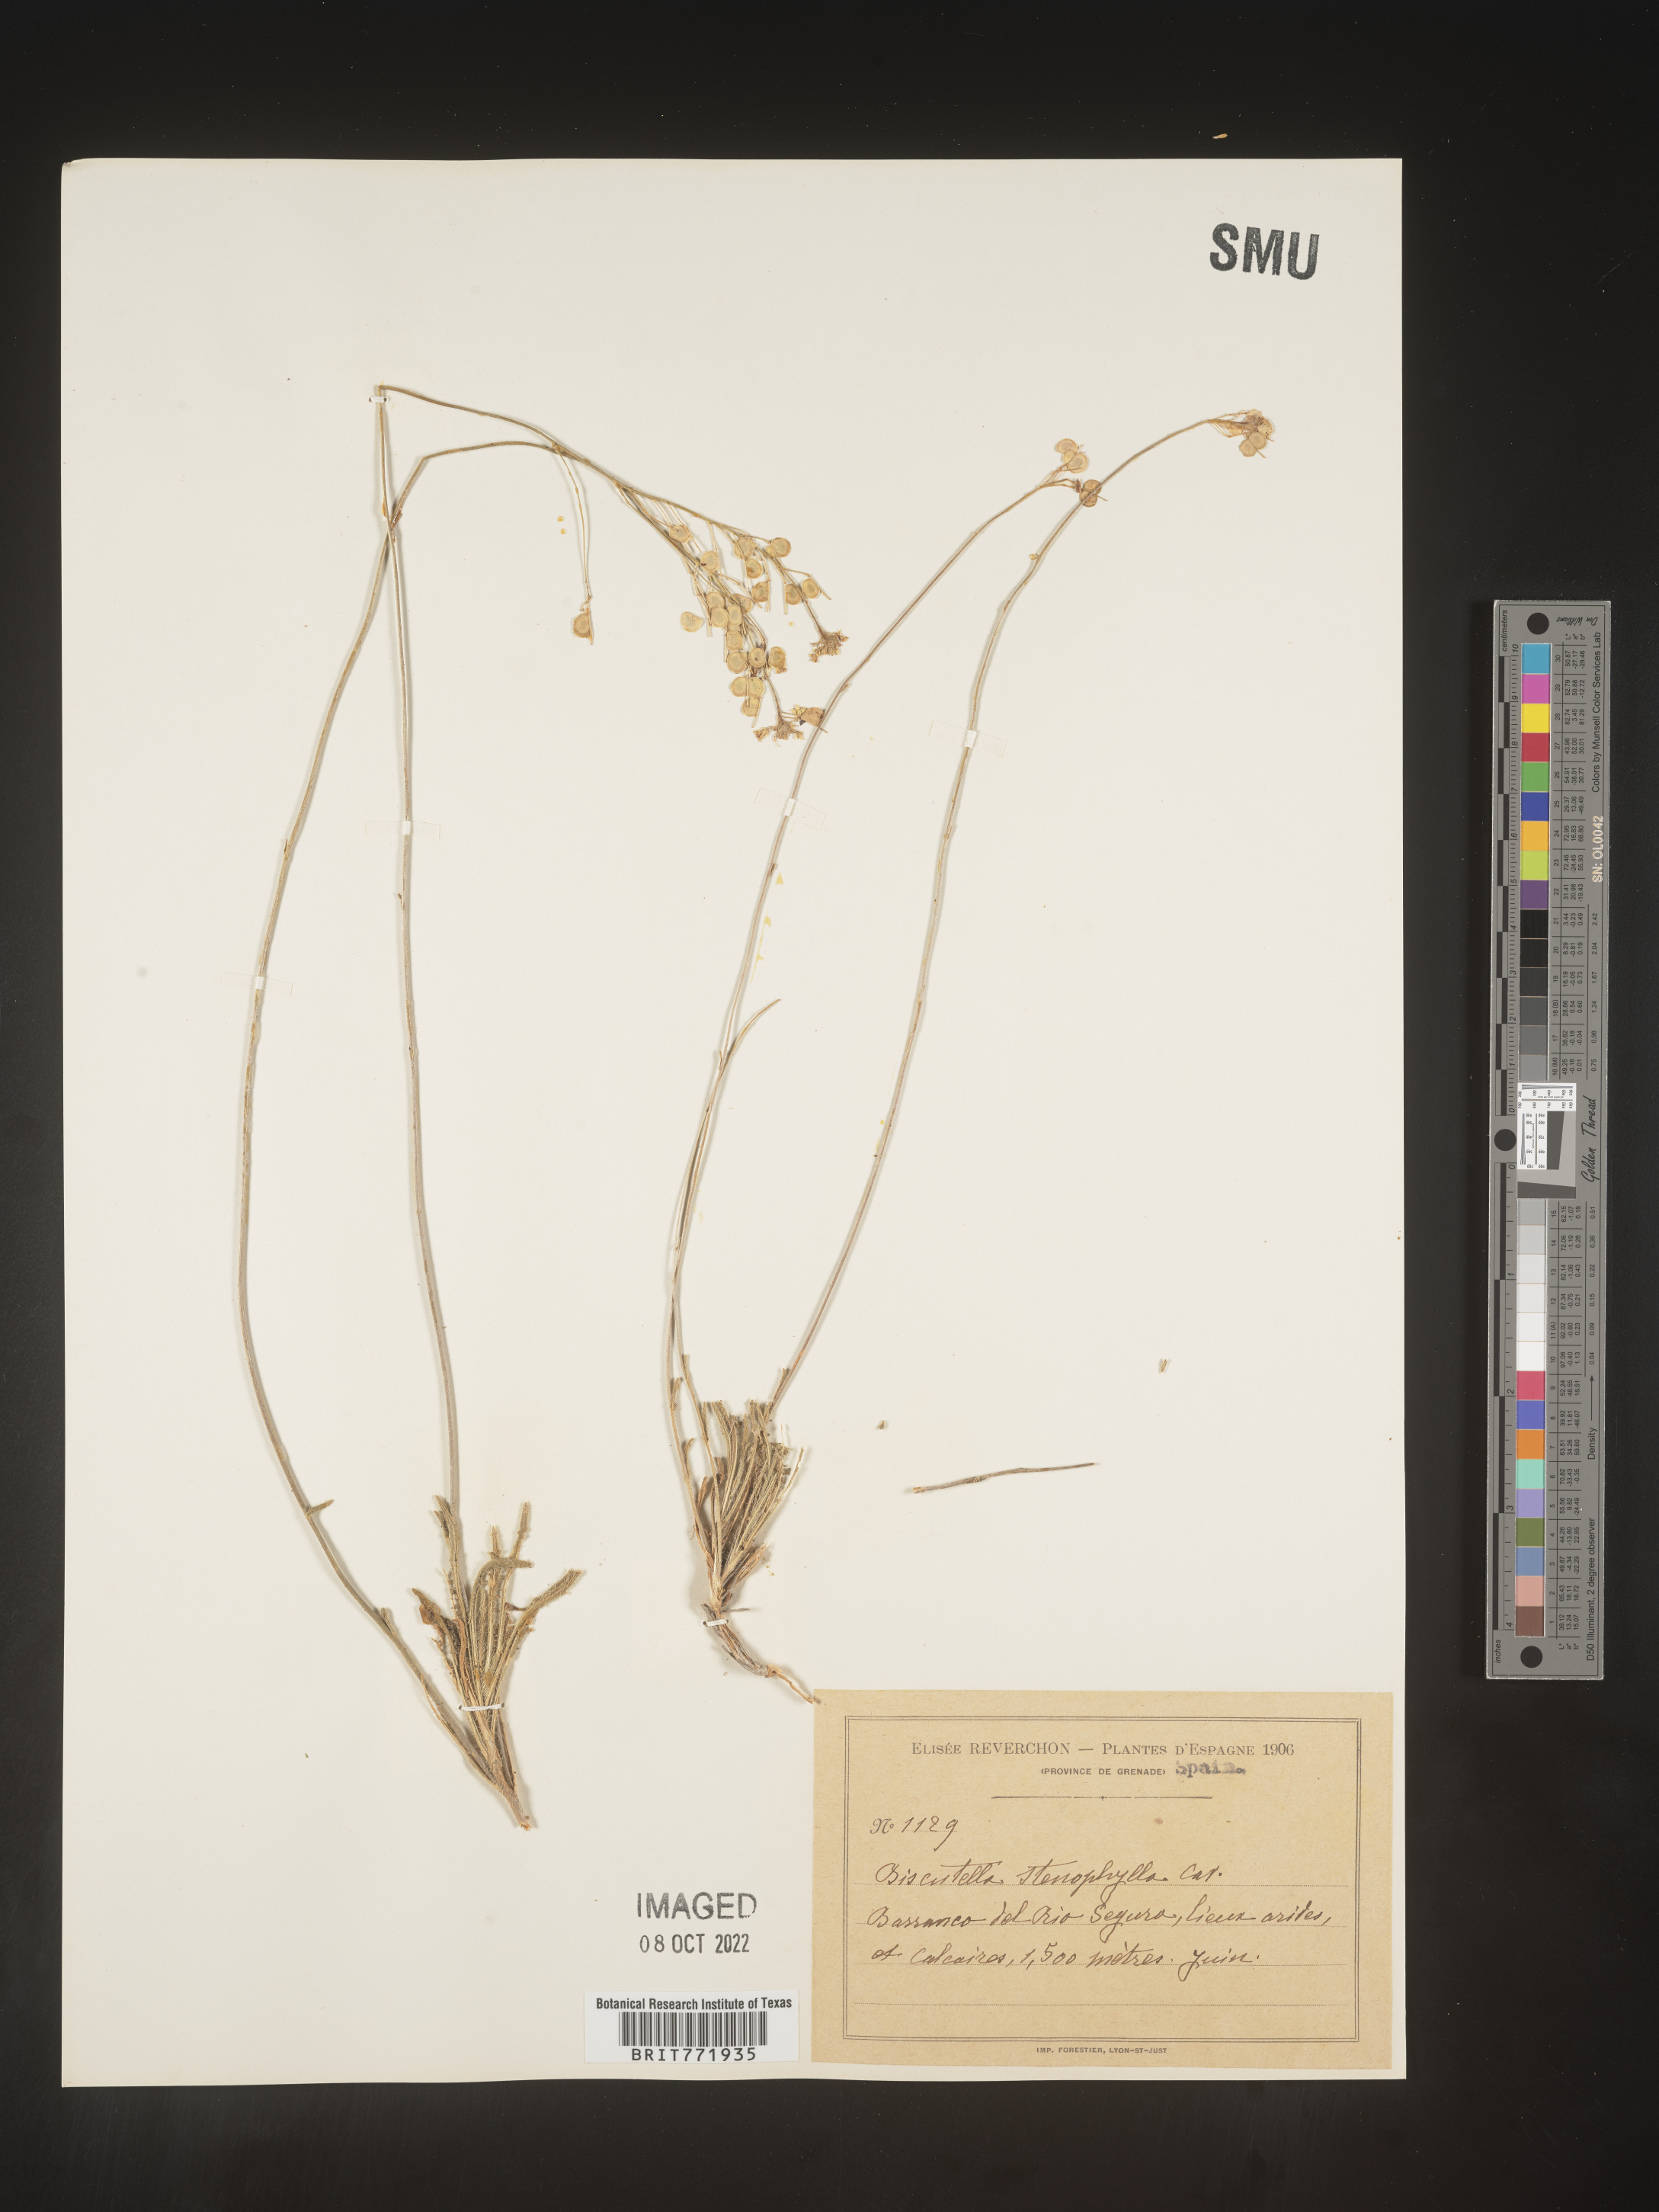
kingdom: Plantae
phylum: Tracheophyta
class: Magnoliopsida
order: Brassicales
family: Brassicaceae
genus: Biscutella
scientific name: Biscutella
